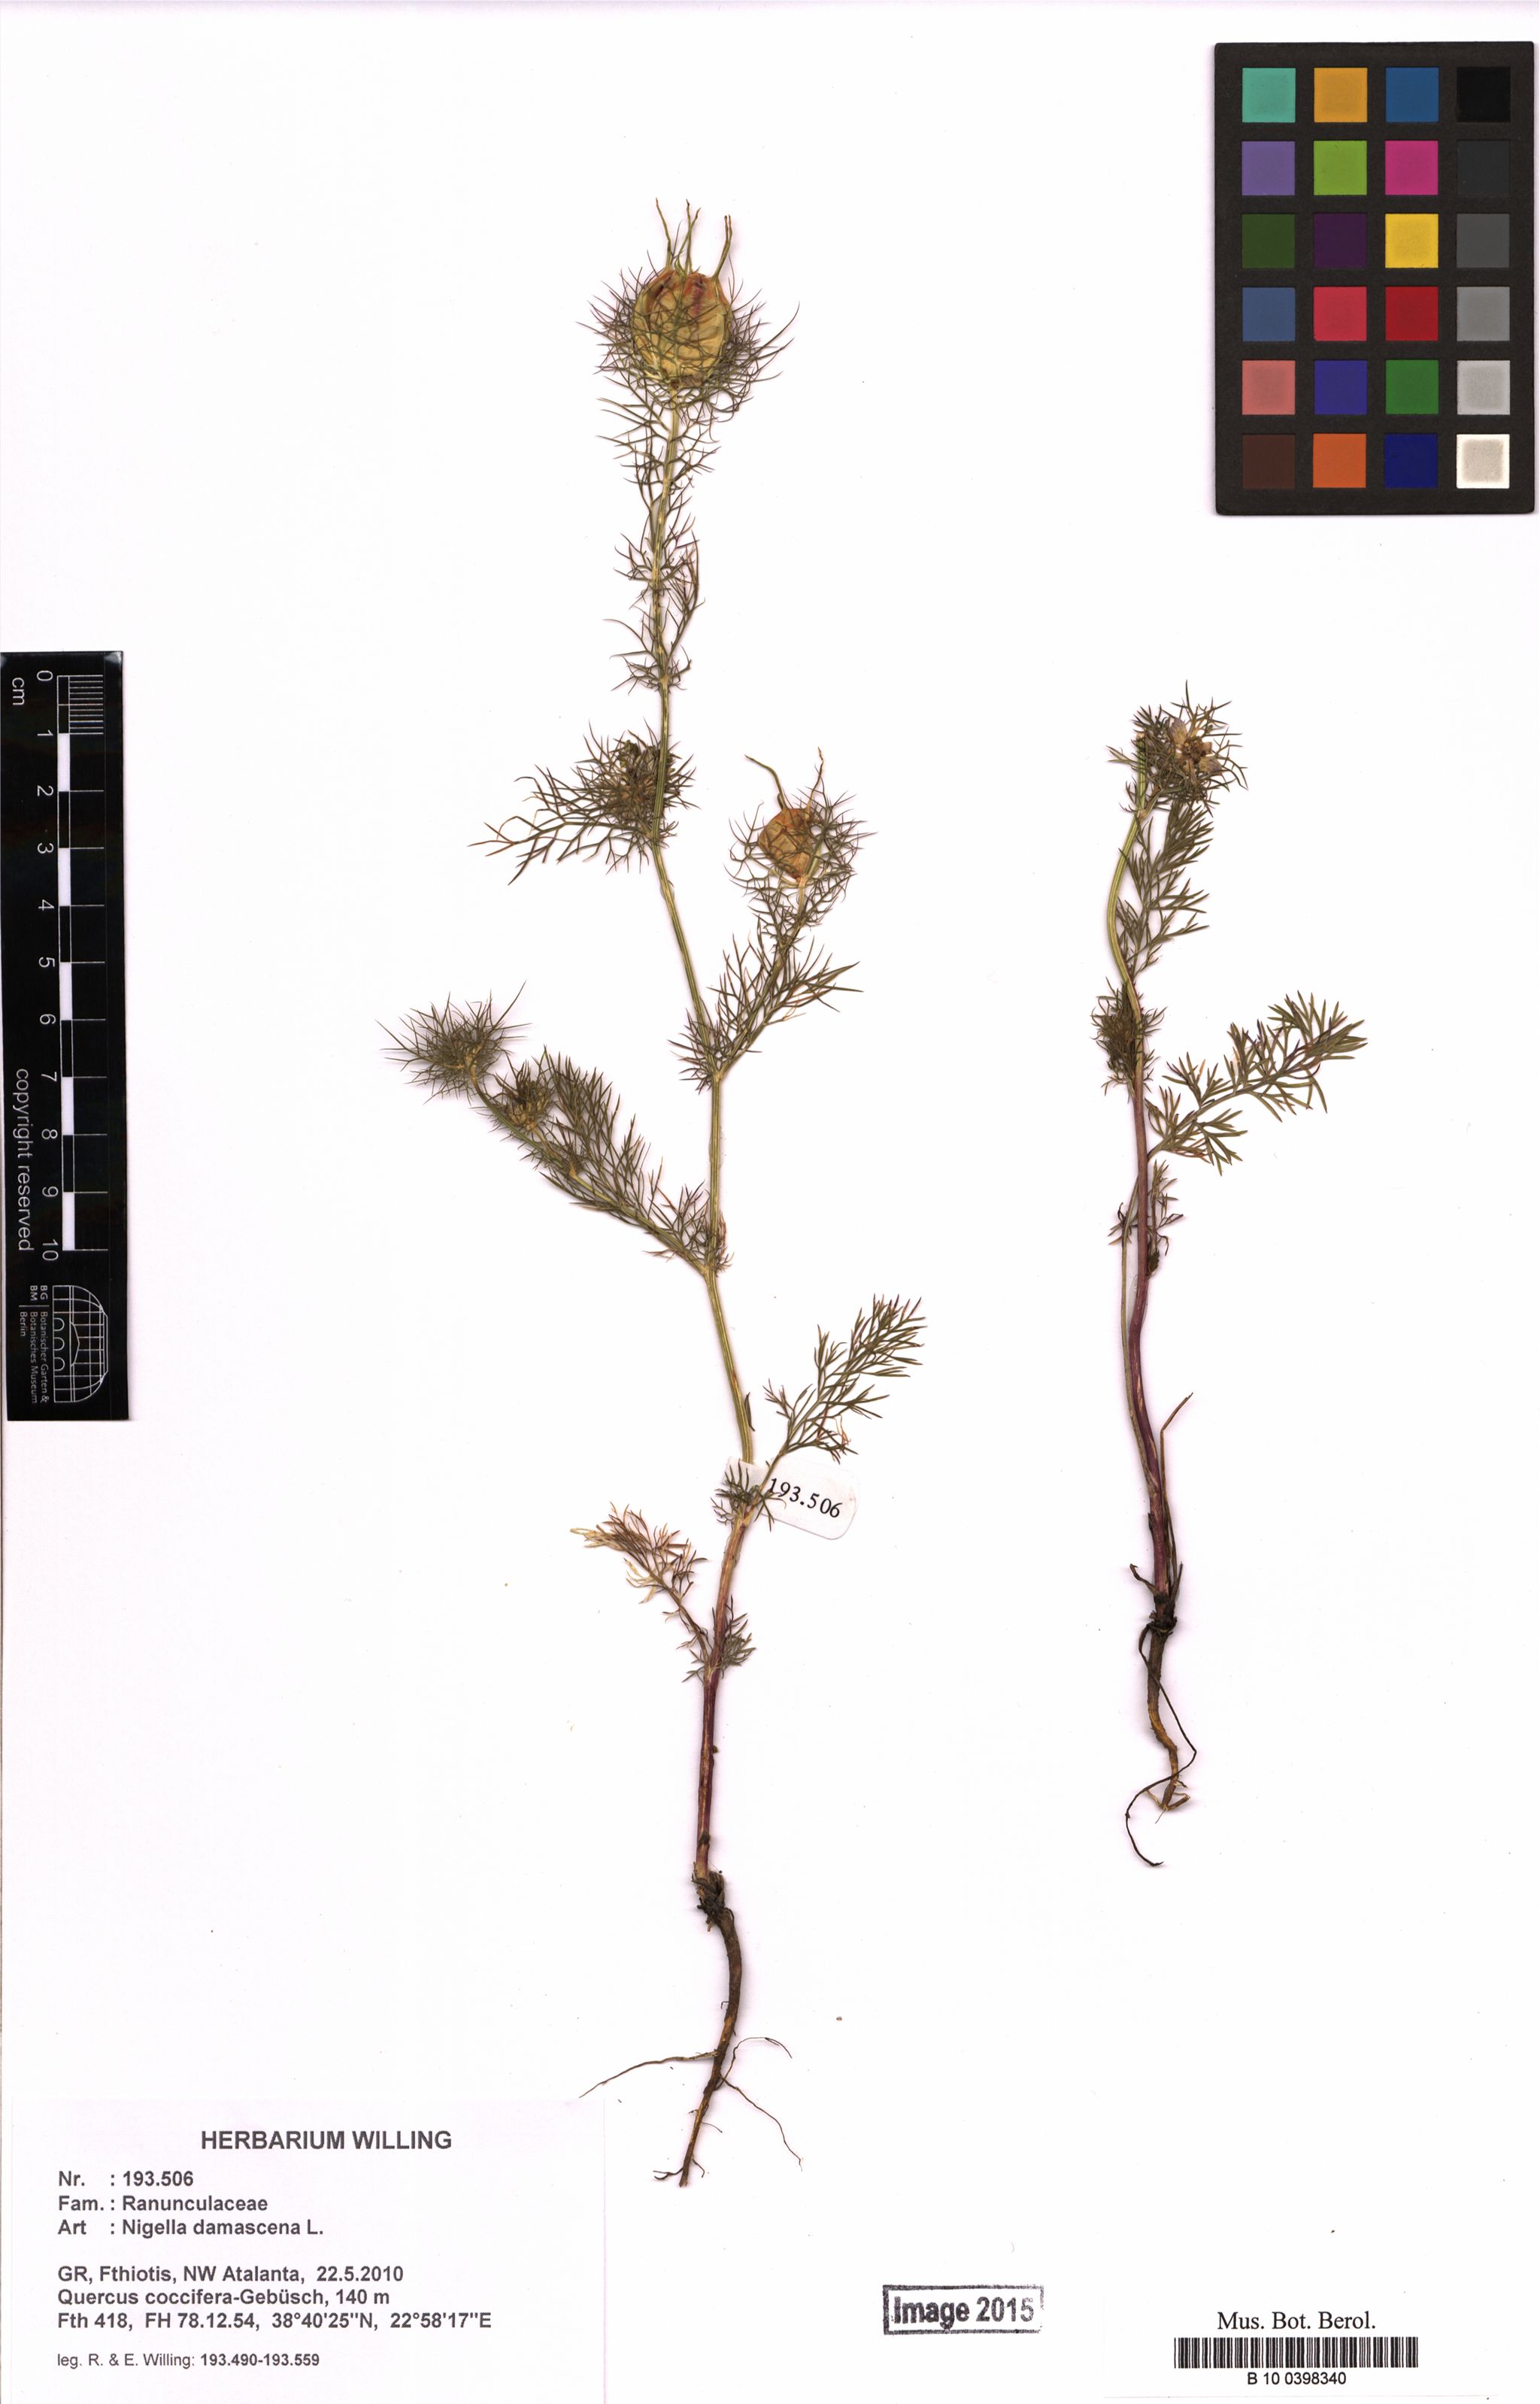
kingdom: Plantae
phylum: Tracheophyta
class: Magnoliopsida
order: Ranunculales
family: Ranunculaceae
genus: Nigella
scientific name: Nigella damascena
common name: Love-in-a-mist
